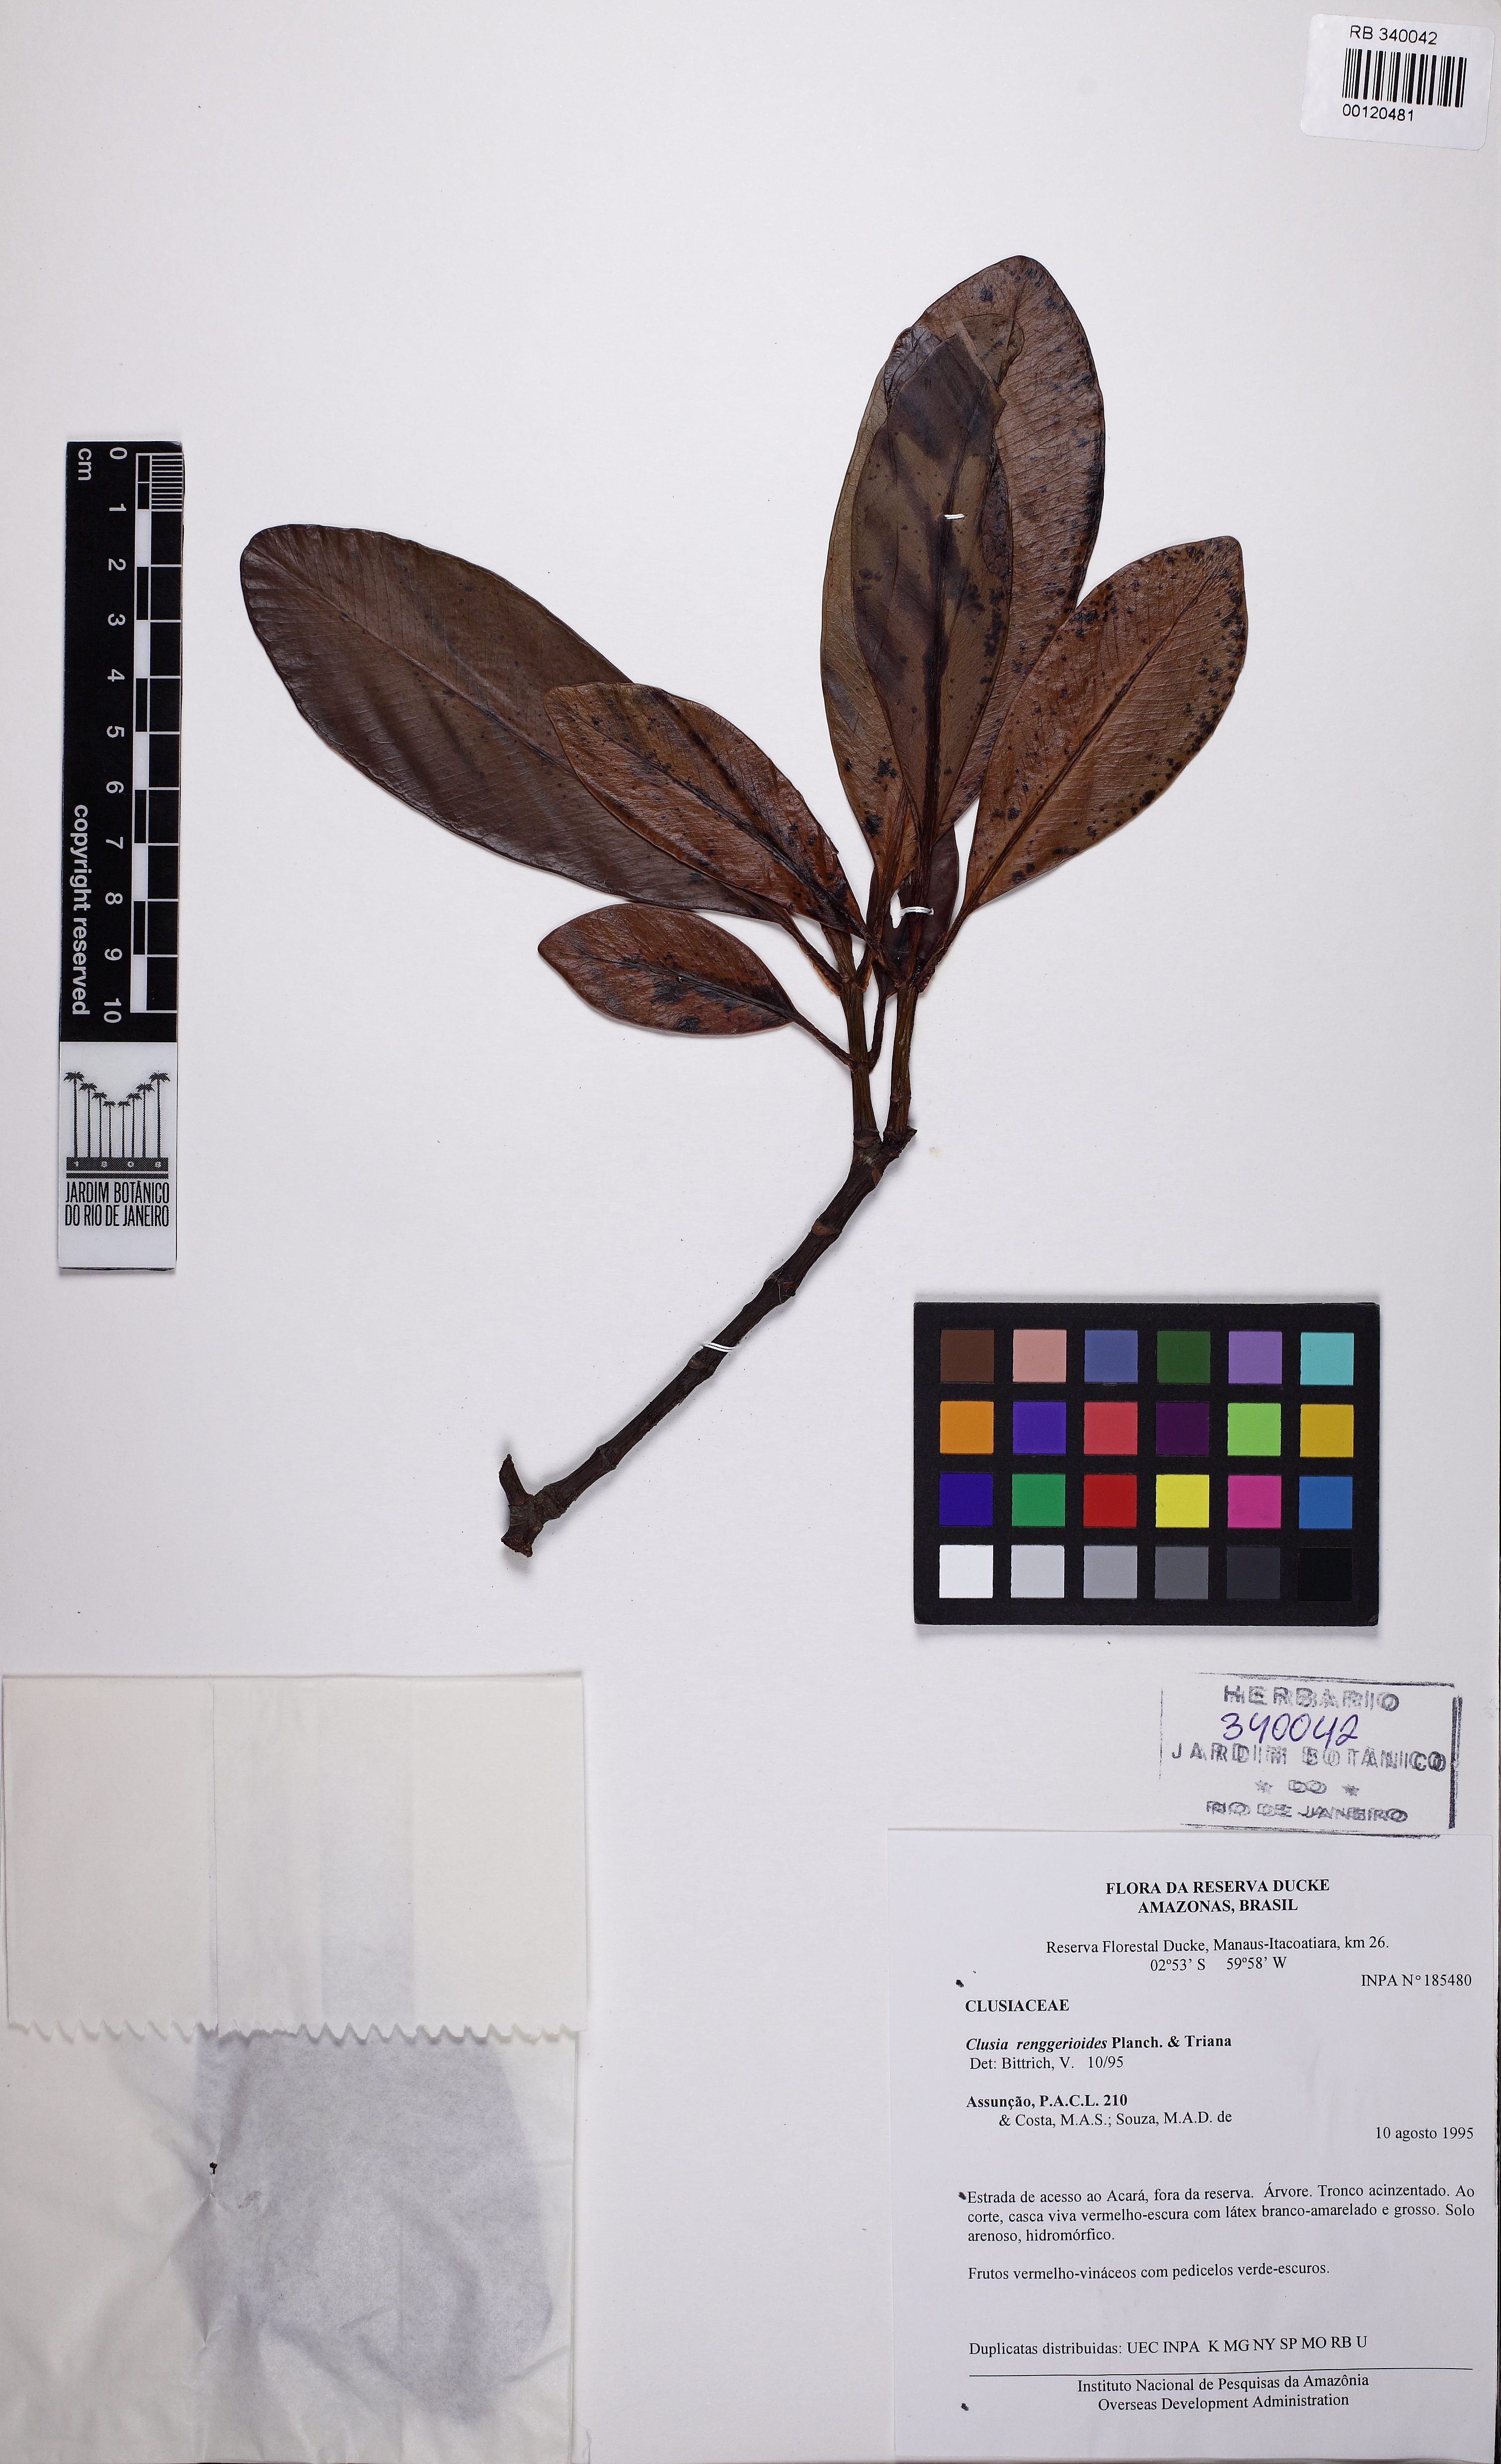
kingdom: Plantae
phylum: Tracheophyta
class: Magnoliopsida
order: Malpighiales
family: Clusiaceae
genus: Clusia
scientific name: Clusia renggerioides
